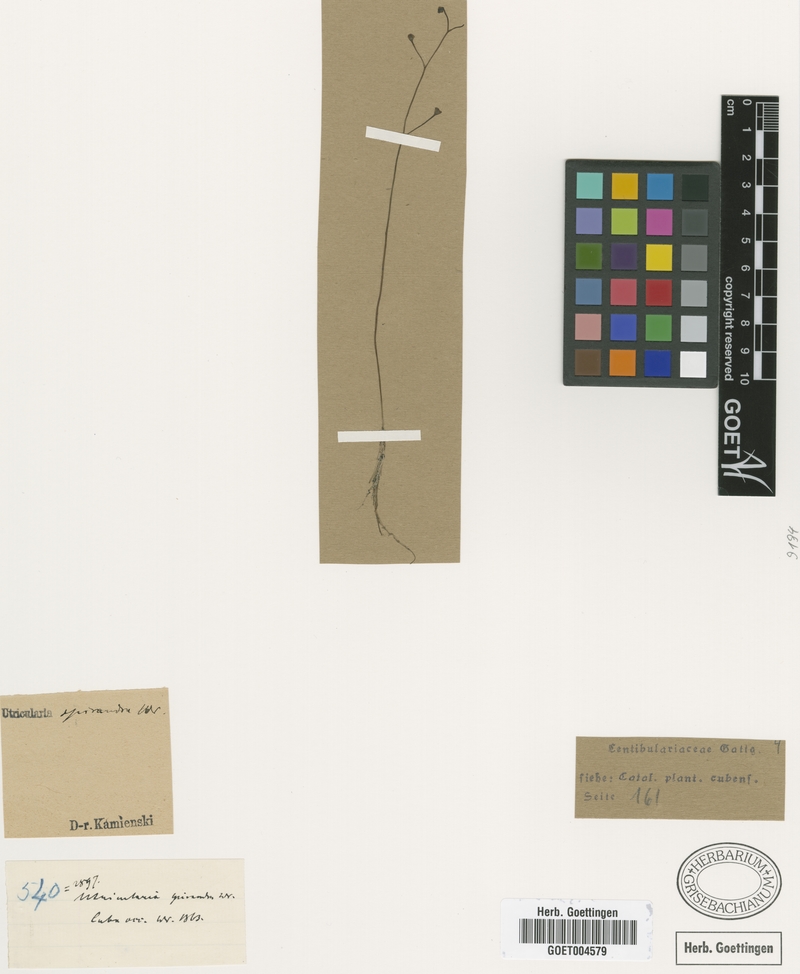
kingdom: Plantae
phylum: Tracheophyta
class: Magnoliopsida
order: Lamiales
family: Lentibulariaceae
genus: Utricularia
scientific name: Utricularia gibba
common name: Humped bladderwort
